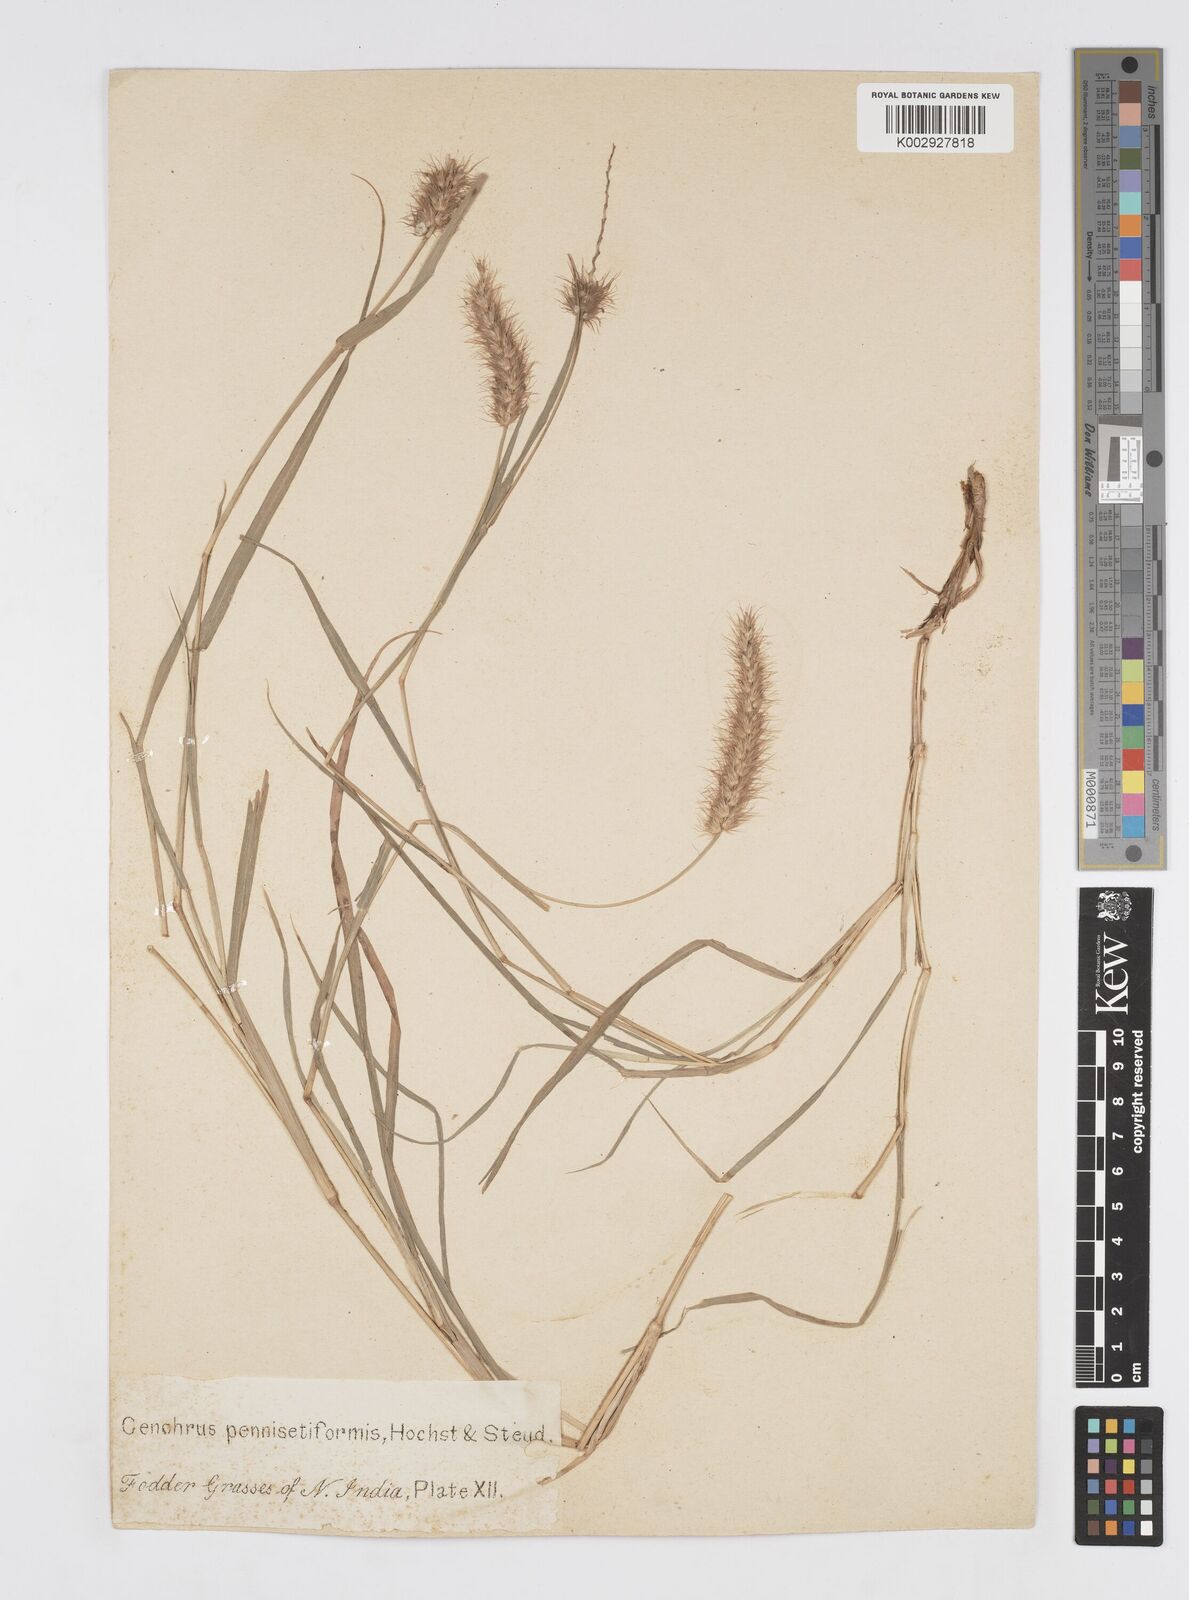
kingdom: Plantae
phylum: Tracheophyta
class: Liliopsida
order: Poales
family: Poaceae
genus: Cenchrus
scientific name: Cenchrus ciliaris
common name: Buffelgrass
